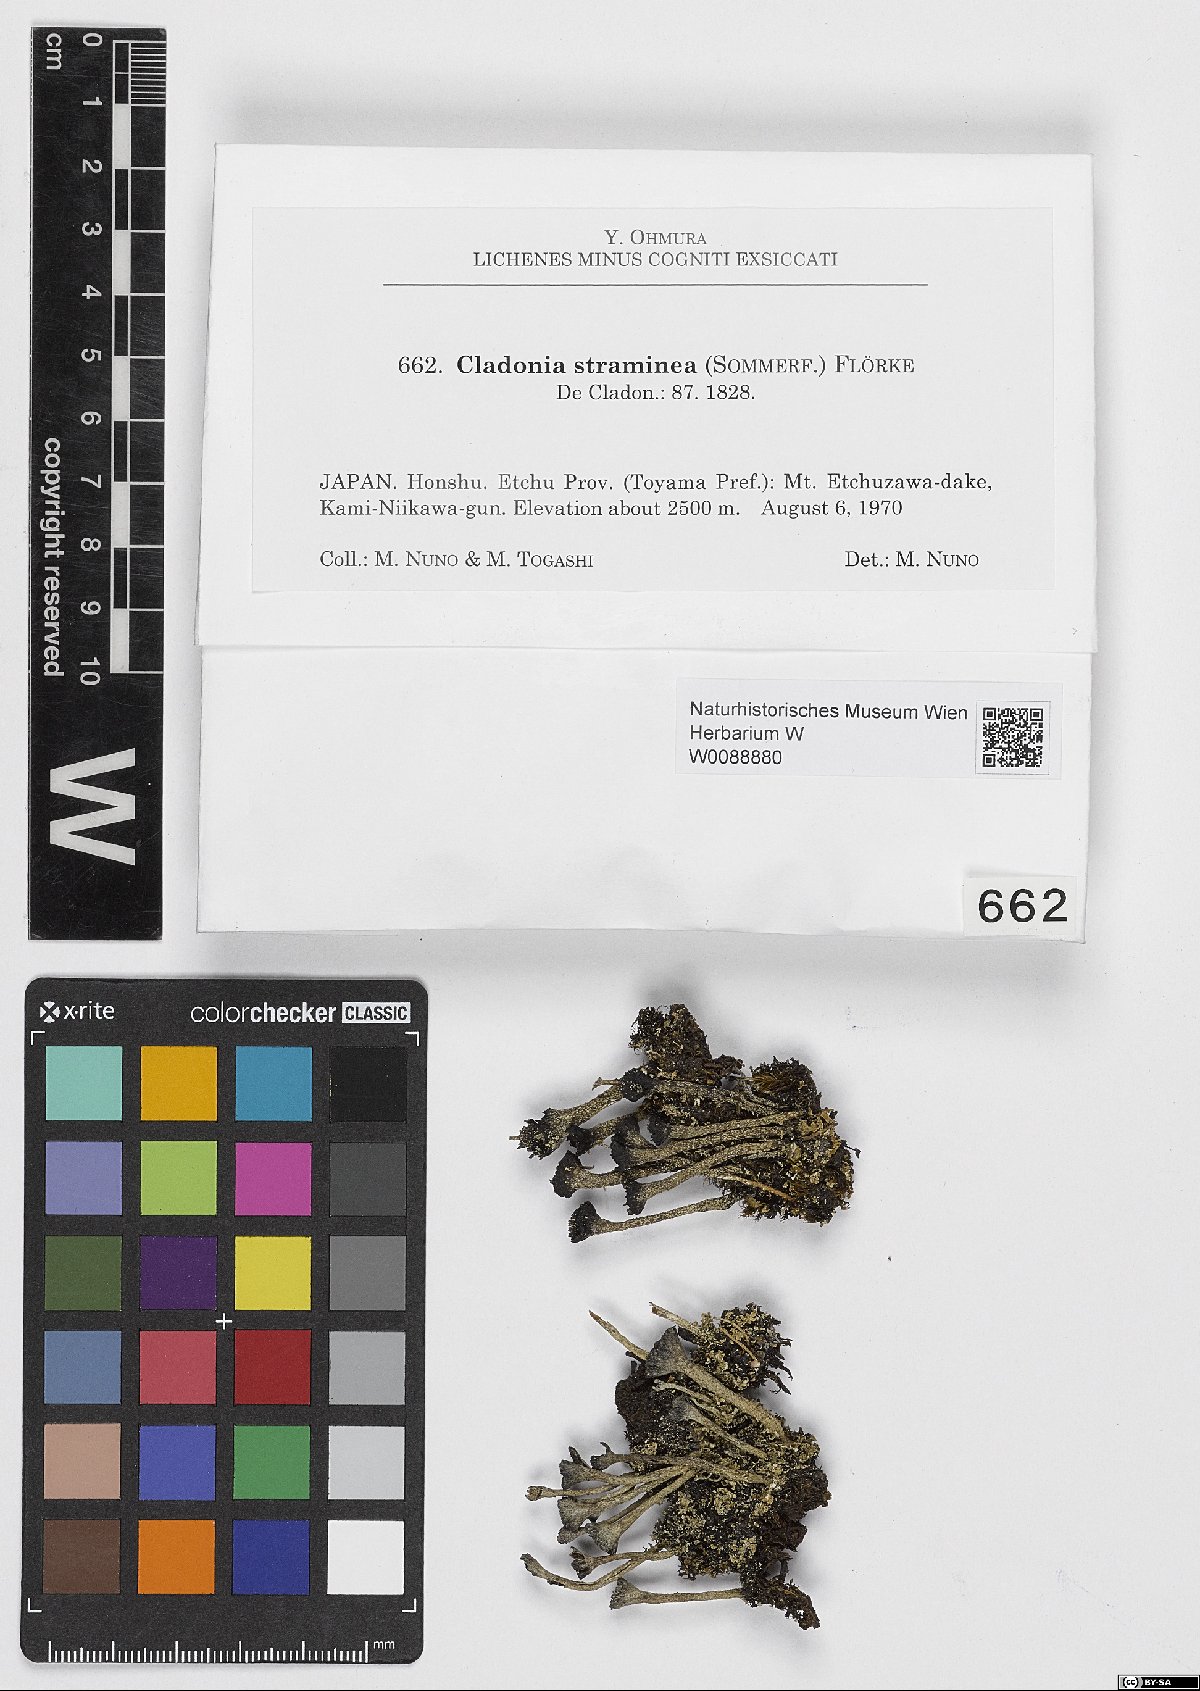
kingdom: Fungi
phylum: Ascomycota
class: Lecanoromycetes
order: Lecanorales
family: Cladoniaceae
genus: Cladonia
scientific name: Cladonia straminea
